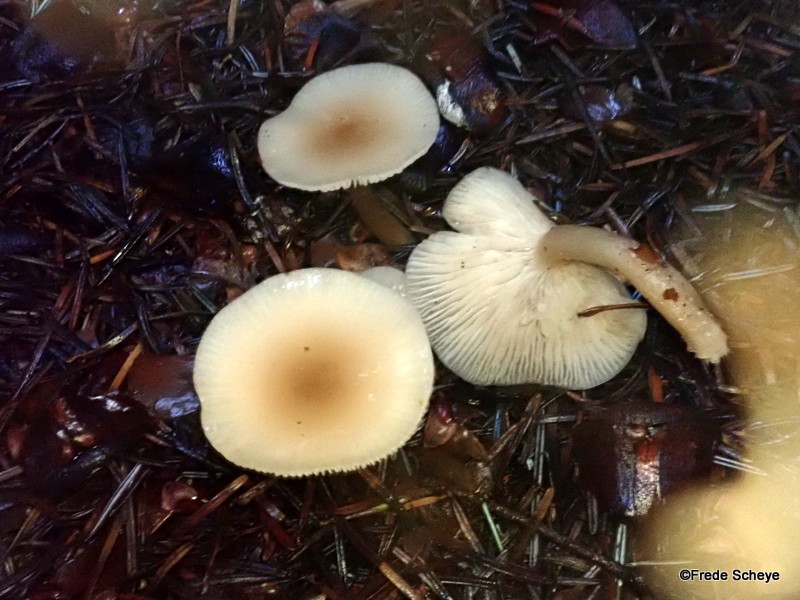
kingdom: Fungi
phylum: Basidiomycota
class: Agaricomycetes
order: Agaricales
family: Tricholomataceae
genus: Clitocybe
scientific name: Clitocybe fragrans
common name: vellugtende tragthat
